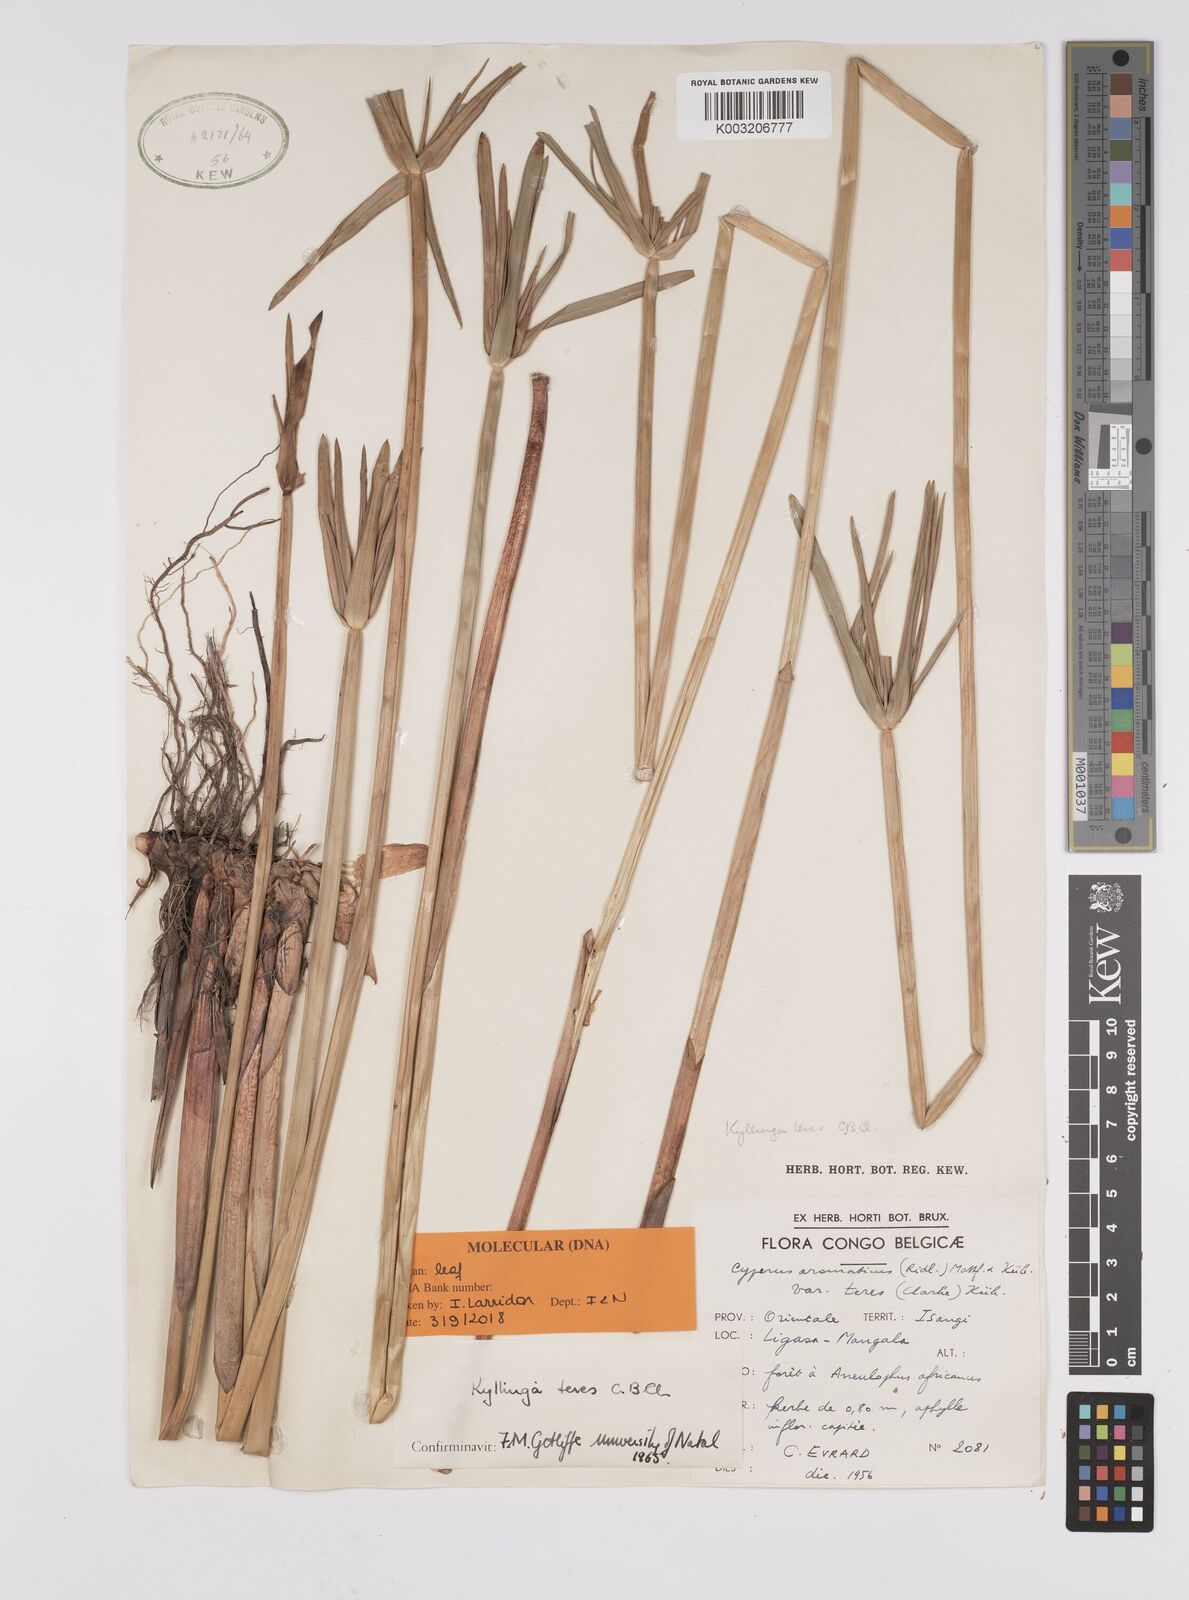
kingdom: Plantae
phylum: Tracheophyta
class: Liliopsida
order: Poales
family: Cyperaceae
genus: Cyperus
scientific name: Cyperus
